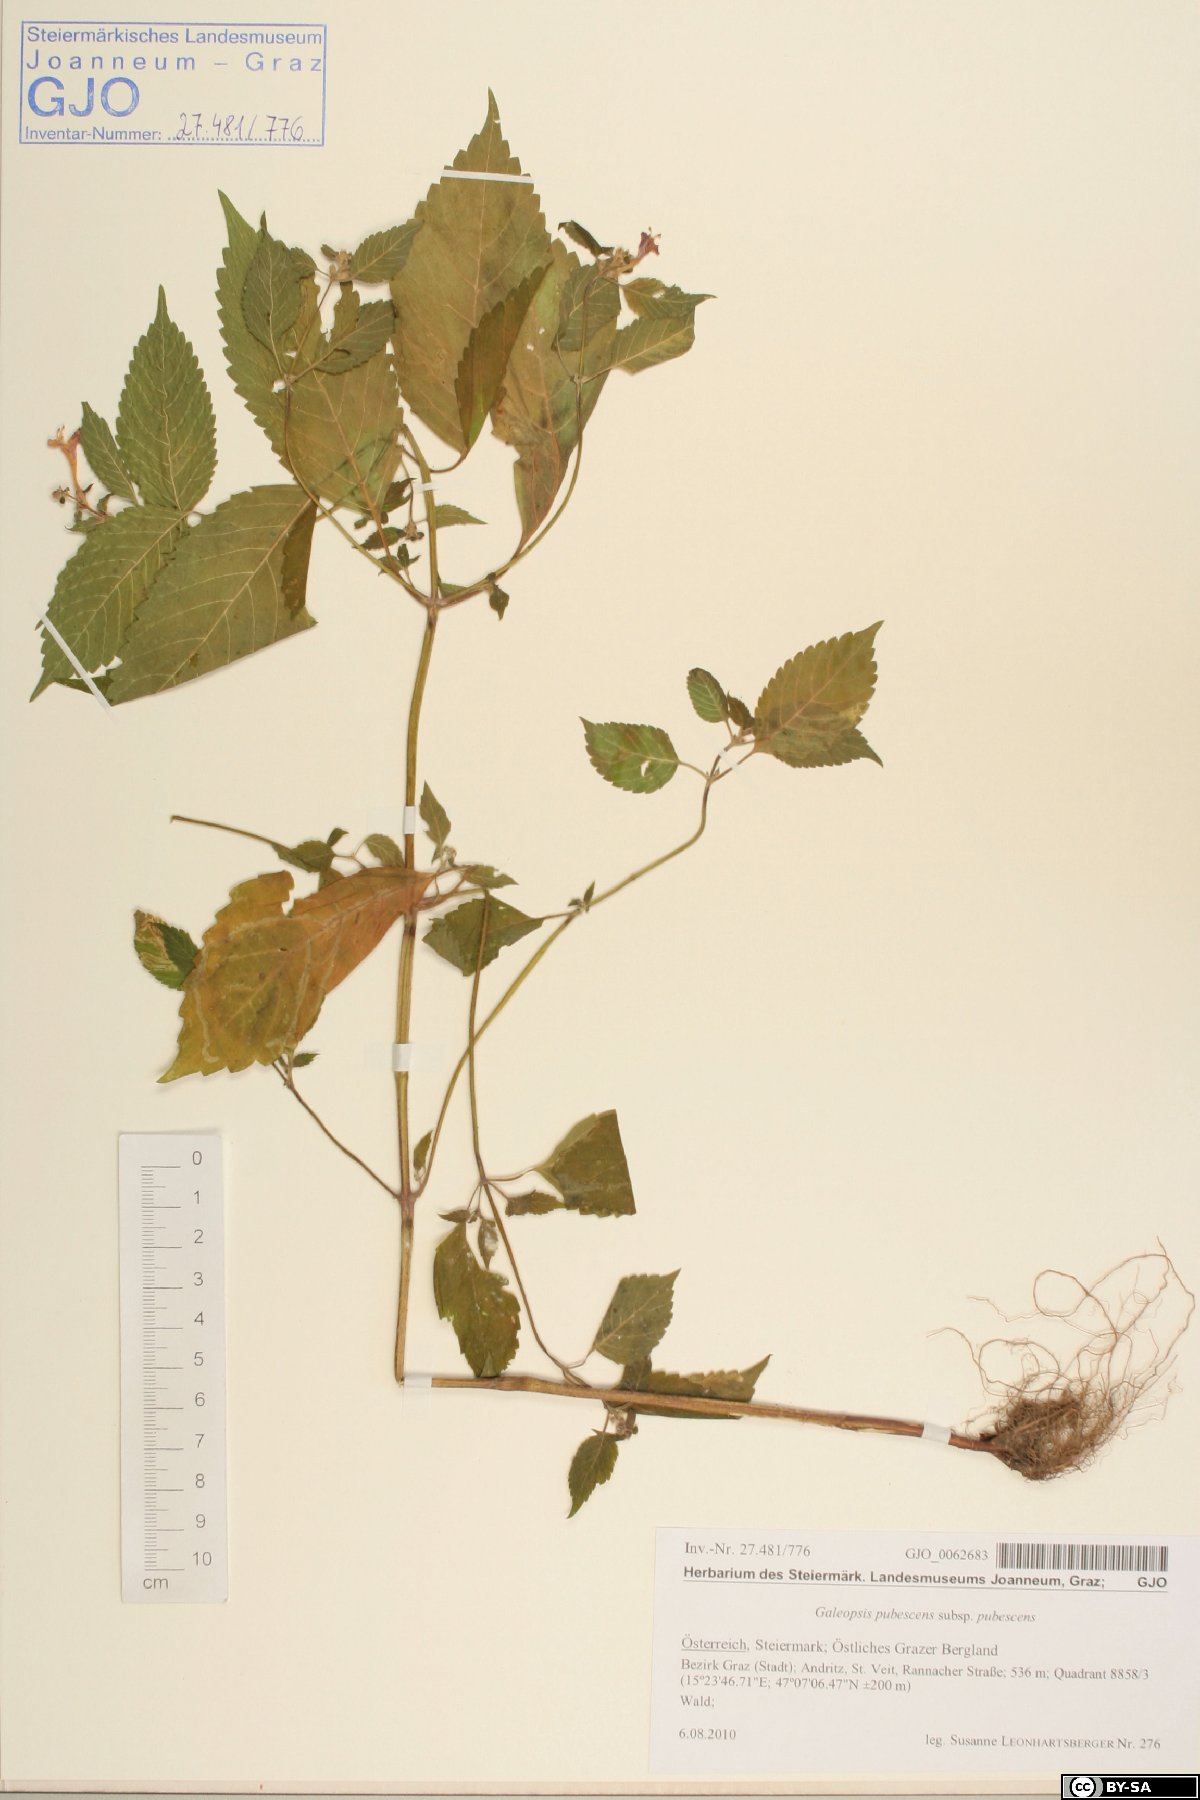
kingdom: Plantae
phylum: Tracheophyta
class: Magnoliopsida
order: Lamiales
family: Lamiaceae
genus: Galeopsis
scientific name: Galeopsis pubescens
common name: Downy hemp-nettle
